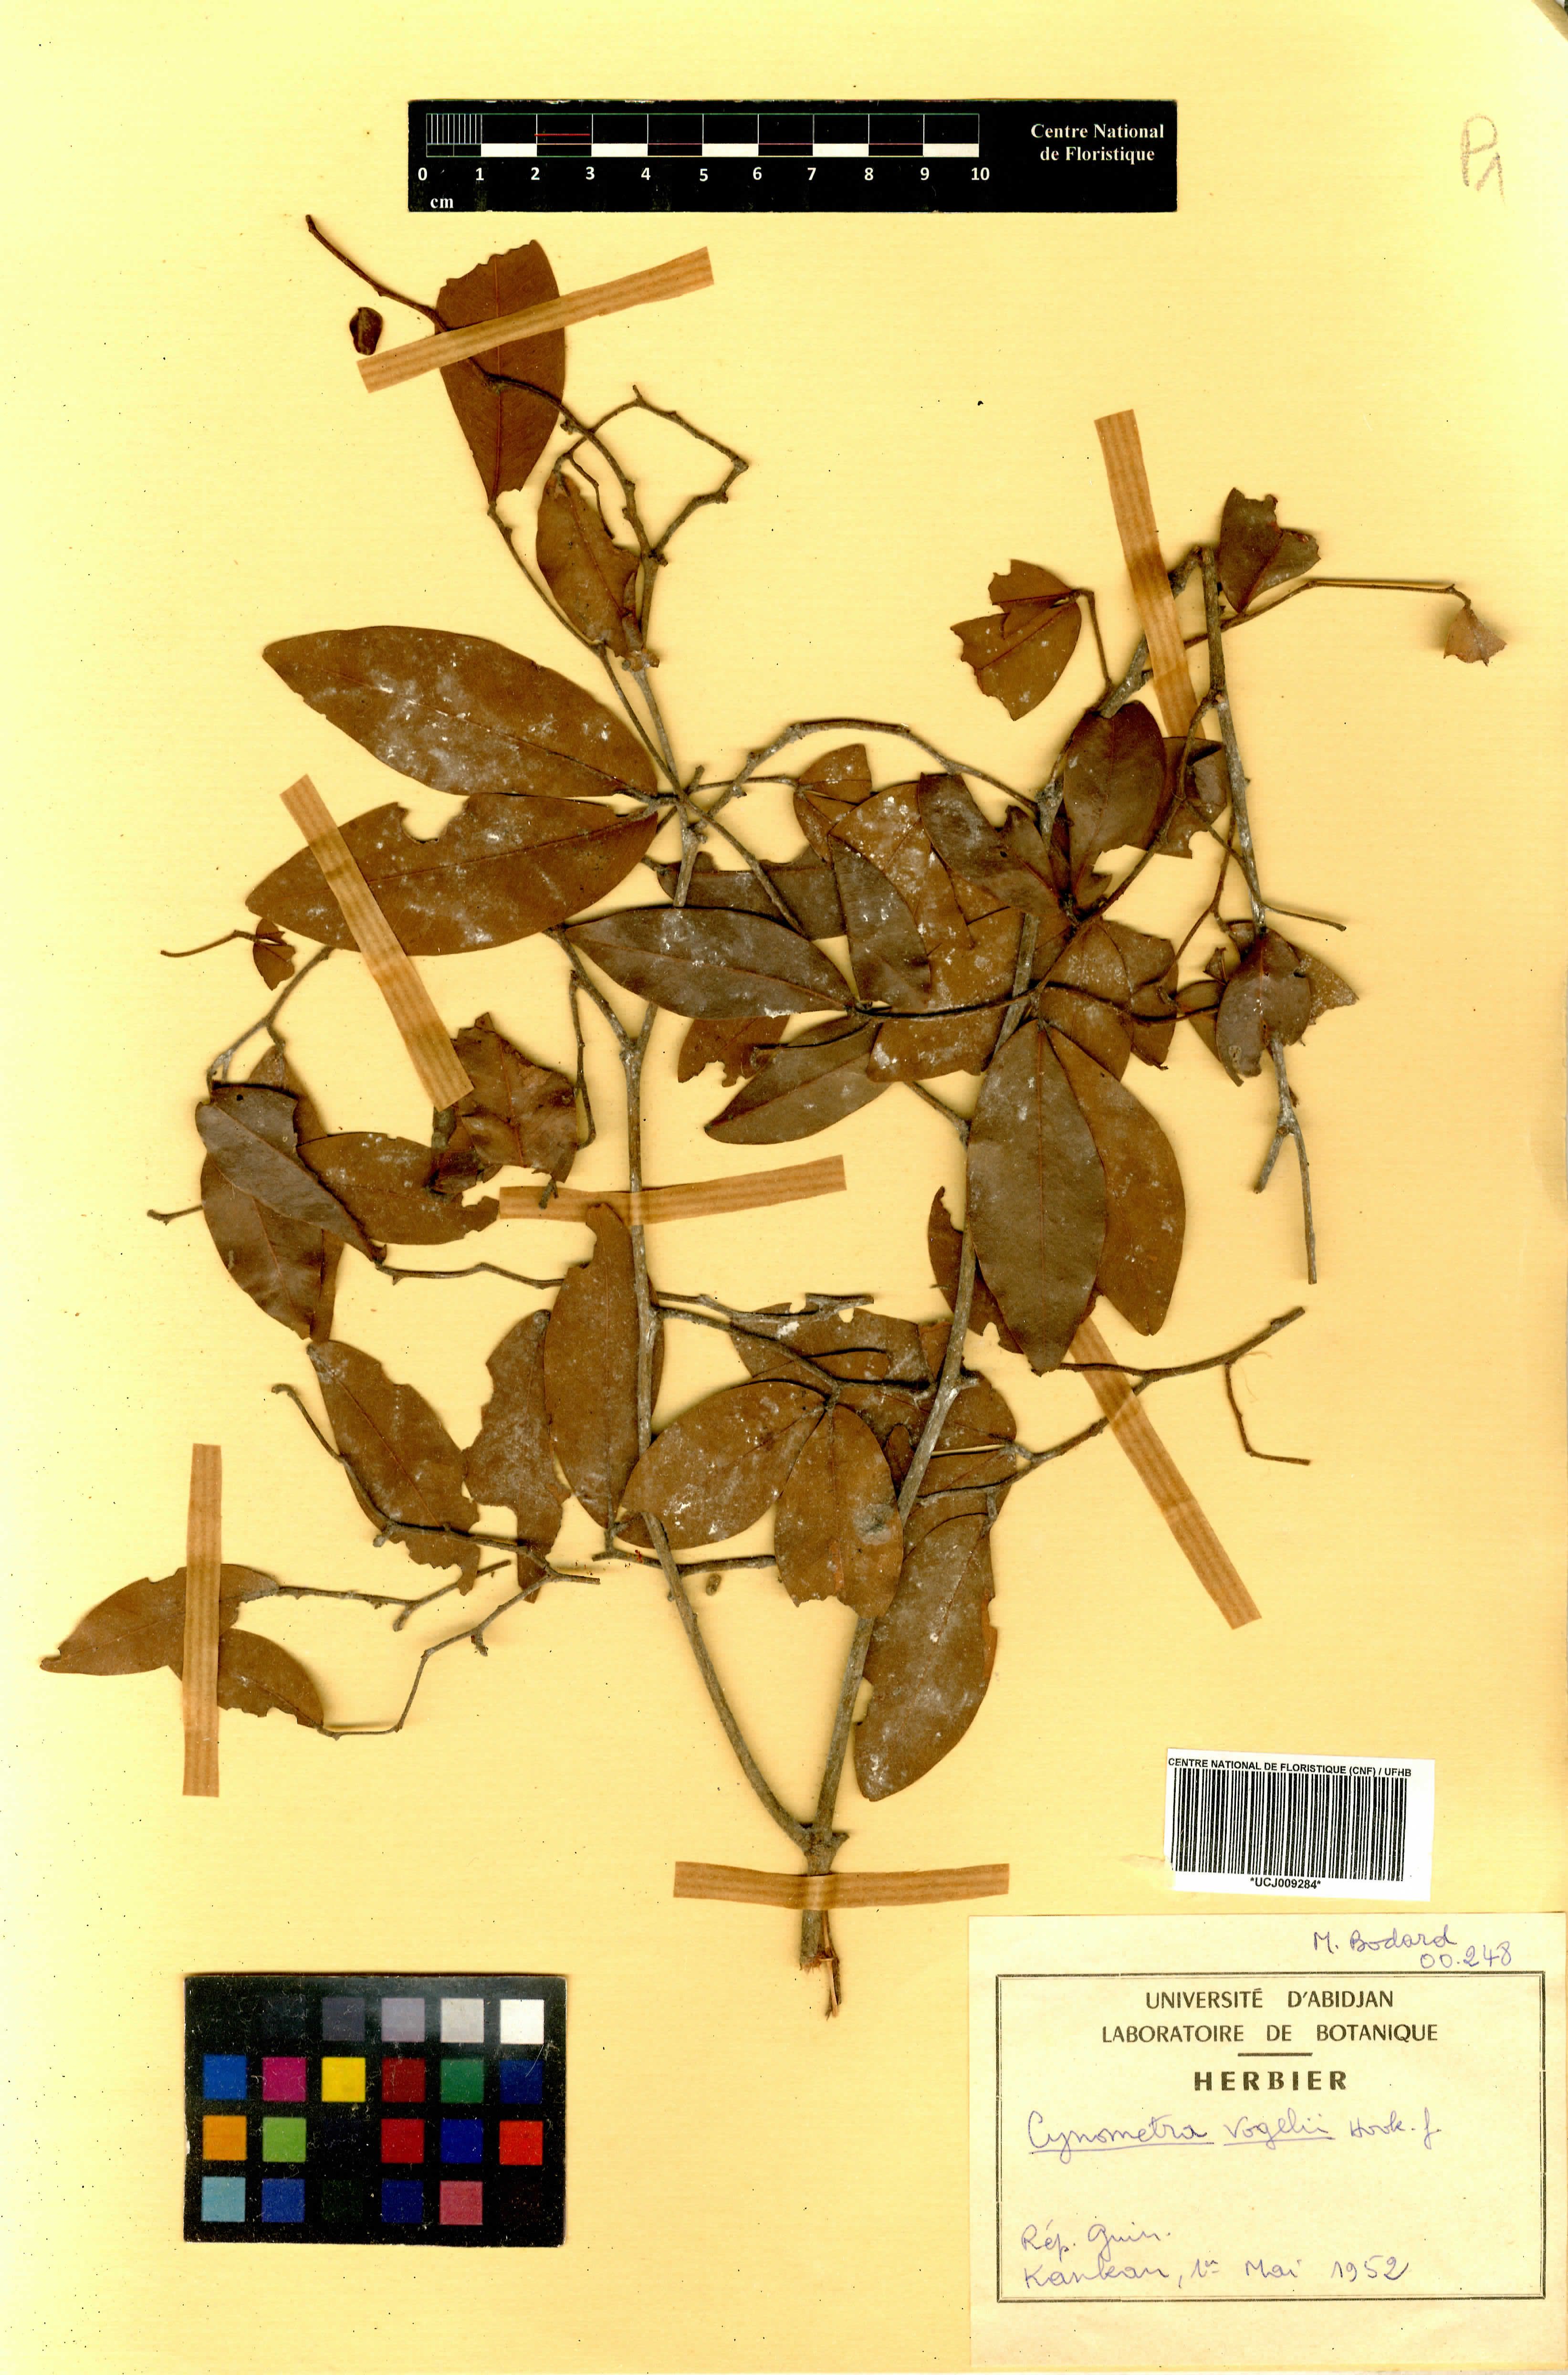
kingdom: Plantae
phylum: Tracheophyta
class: Magnoliopsida
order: Fabales
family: Fabaceae
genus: Cynometra
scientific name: Cynometra vogelii
